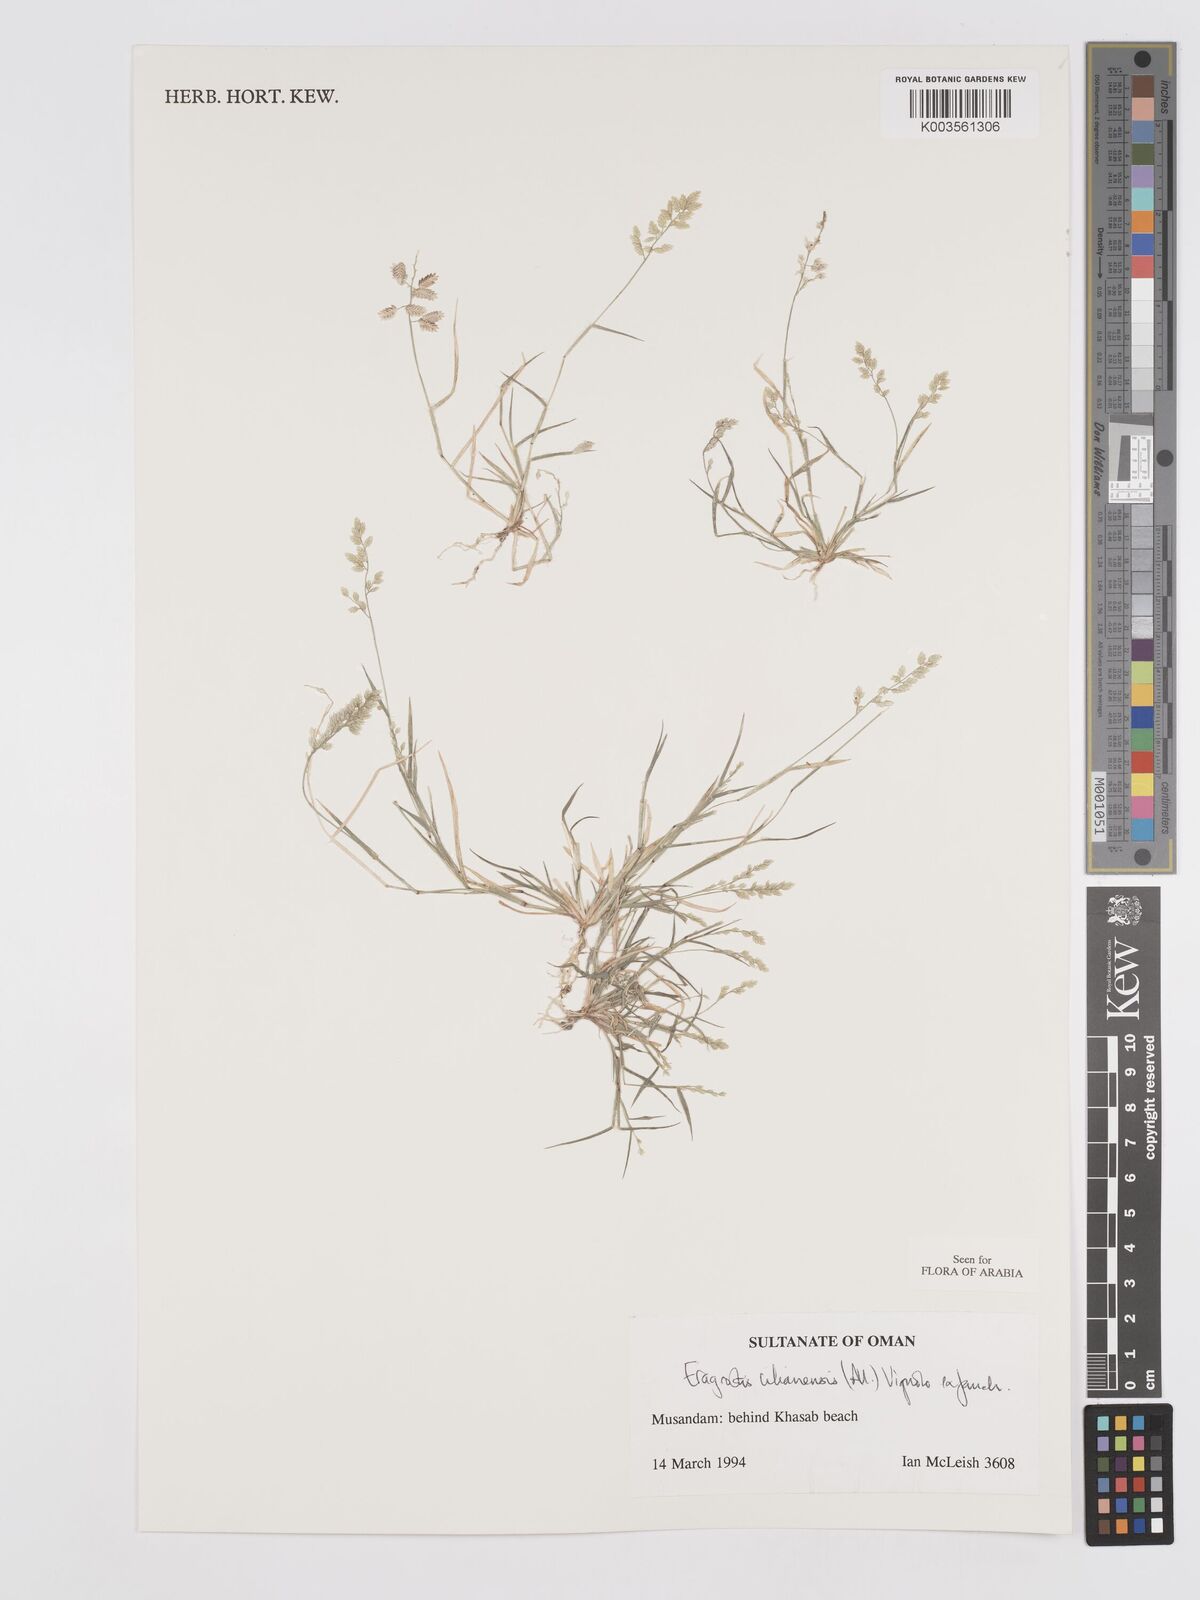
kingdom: Plantae
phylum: Tracheophyta
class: Liliopsida
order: Poales
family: Poaceae
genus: Eragrostis
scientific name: Eragrostis cilianensis
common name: Stinkgrass
